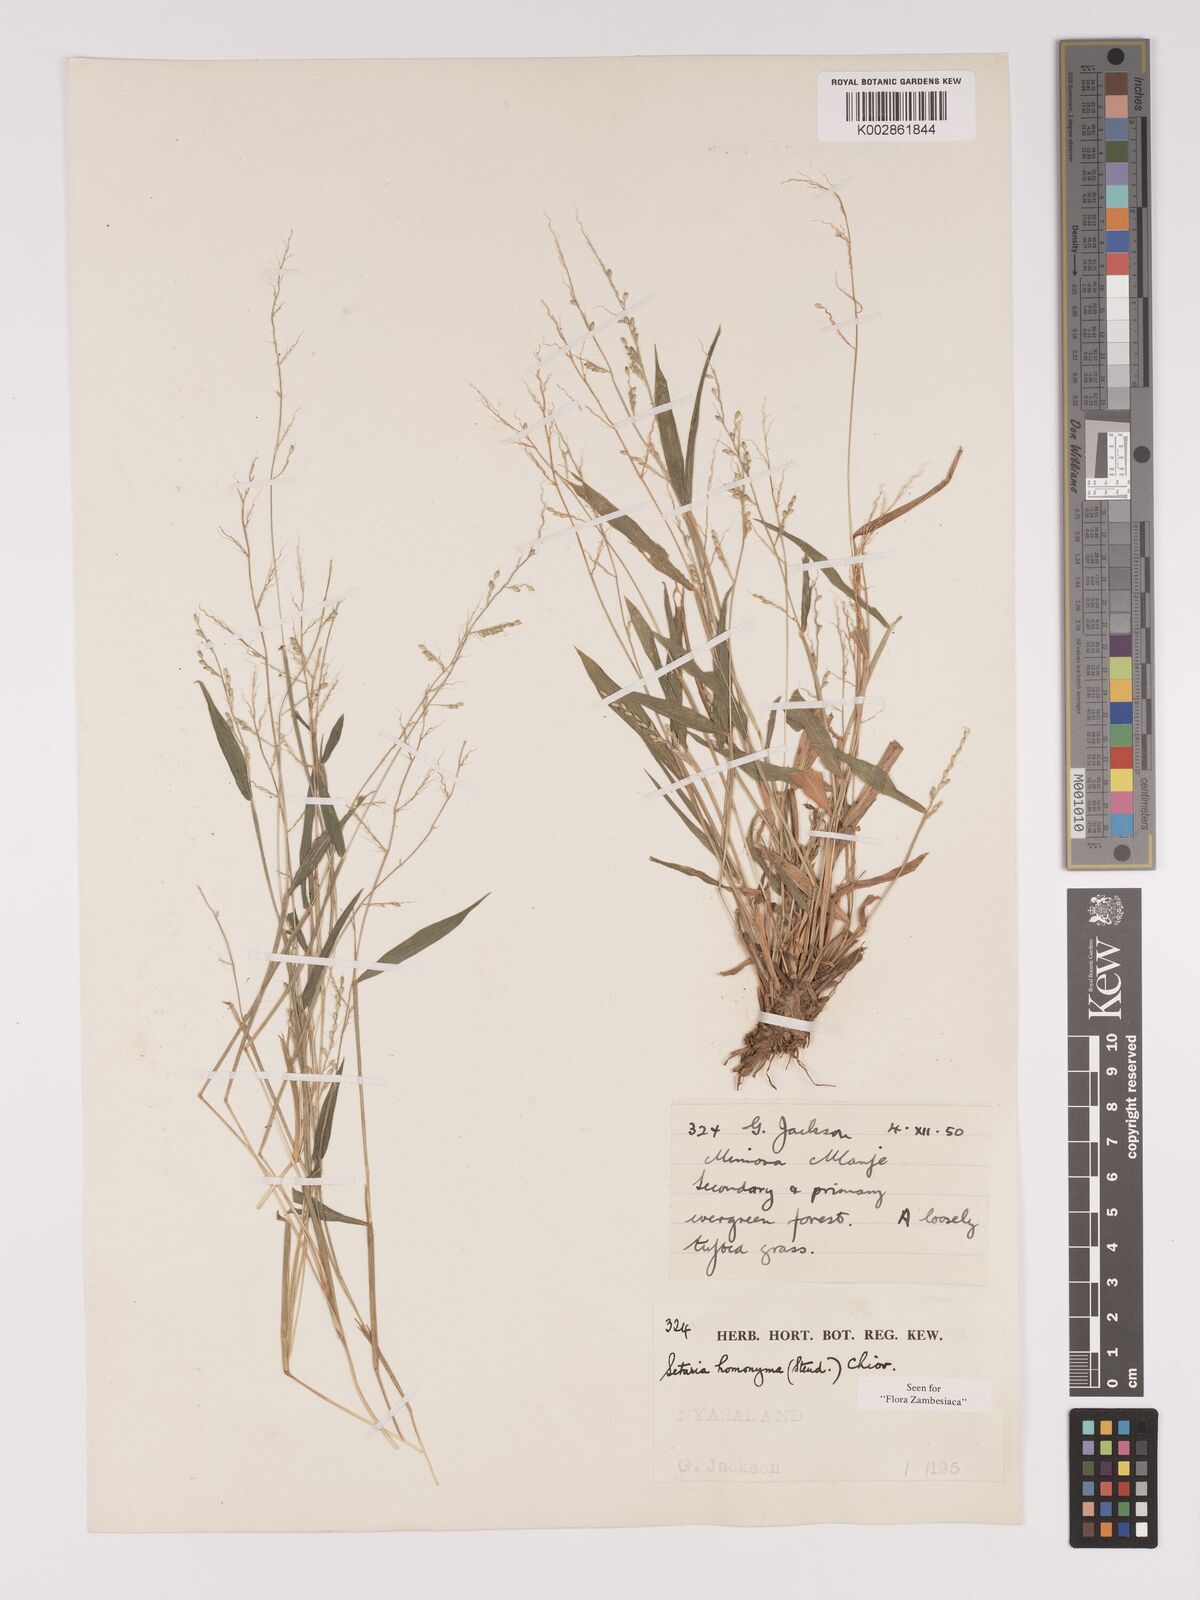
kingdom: Plantae
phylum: Tracheophyta
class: Liliopsida
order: Poales
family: Poaceae
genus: Setaria
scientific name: Setaria homonyma
